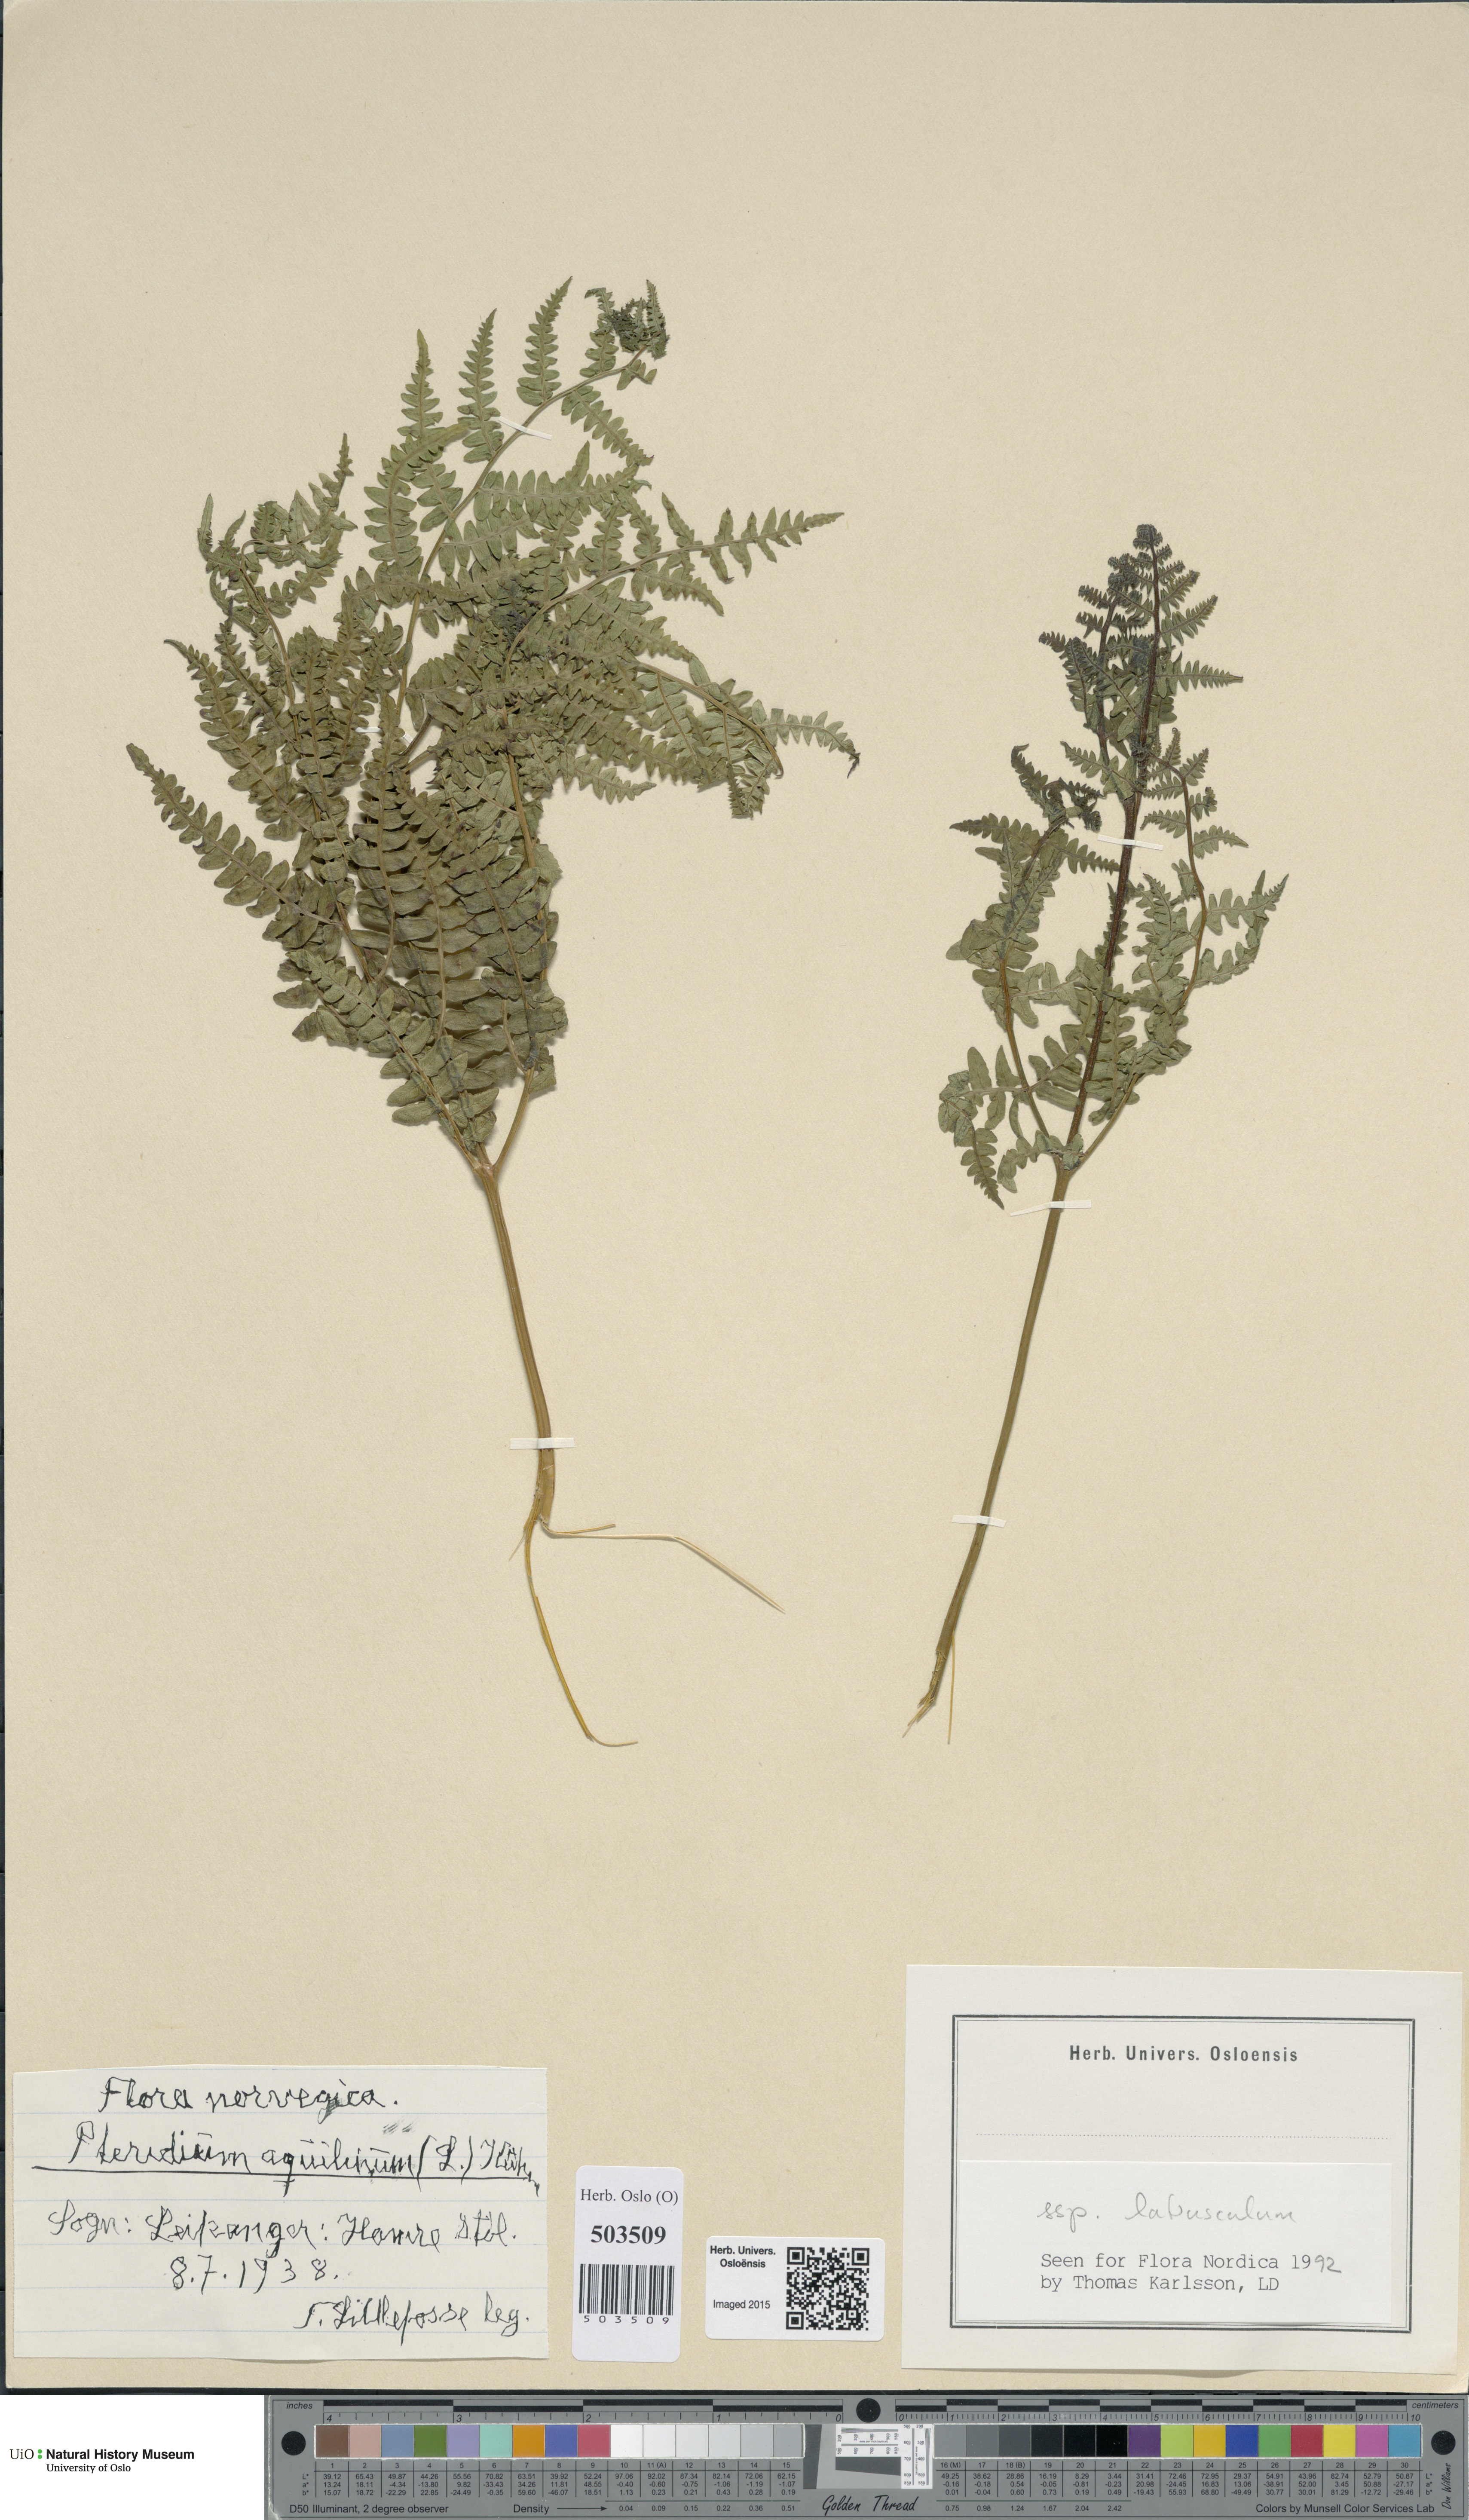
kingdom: Plantae
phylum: Tracheophyta
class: Polypodiopsida
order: Polypodiales
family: Dennstaedtiaceae
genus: Pteridium
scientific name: Pteridium aquilinum
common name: Bracken
